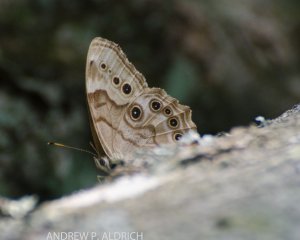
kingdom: Animalia
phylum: Arthropoda
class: Insecta
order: Lepidoptera
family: Nymphalidae
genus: Lethe
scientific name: Lethe anthedon
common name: Northern Pearly-Eye
